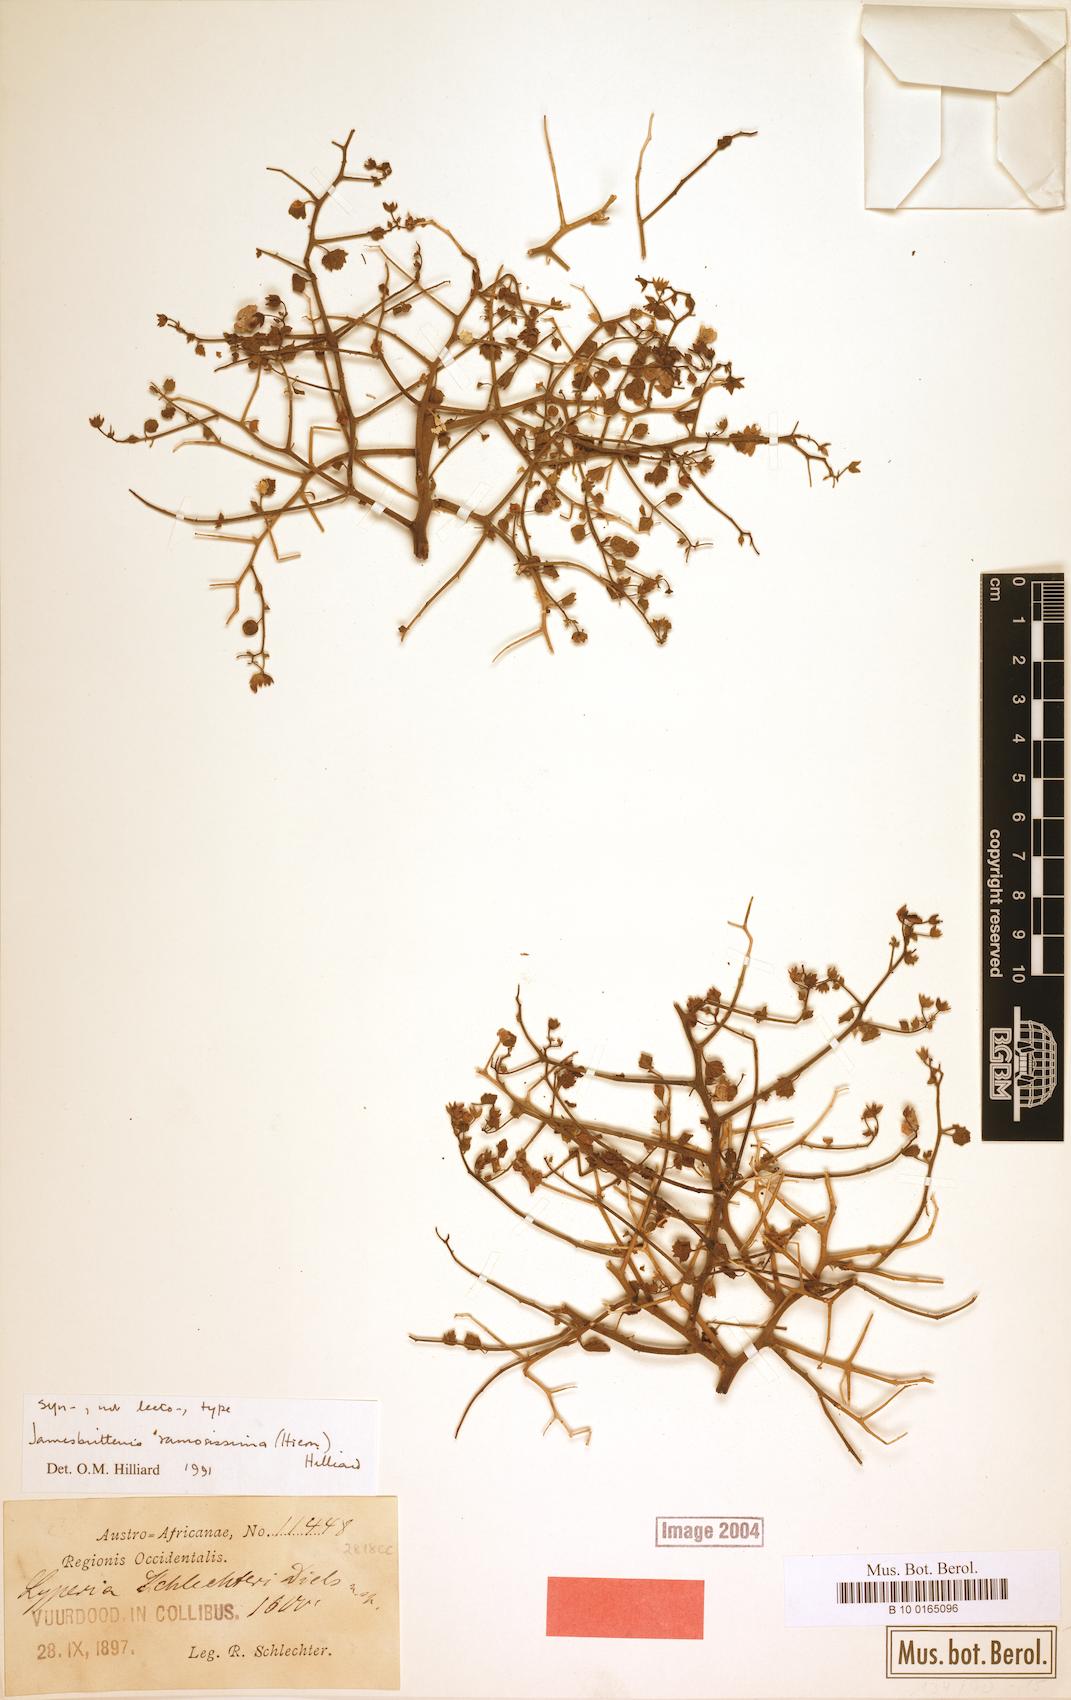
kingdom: Plantae
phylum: Tracheophyta
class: Magnoliopsida
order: Lamiales
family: Scrophulariaceae
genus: Jamesbrittenia
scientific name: Jamesbrittenia ramosissima
